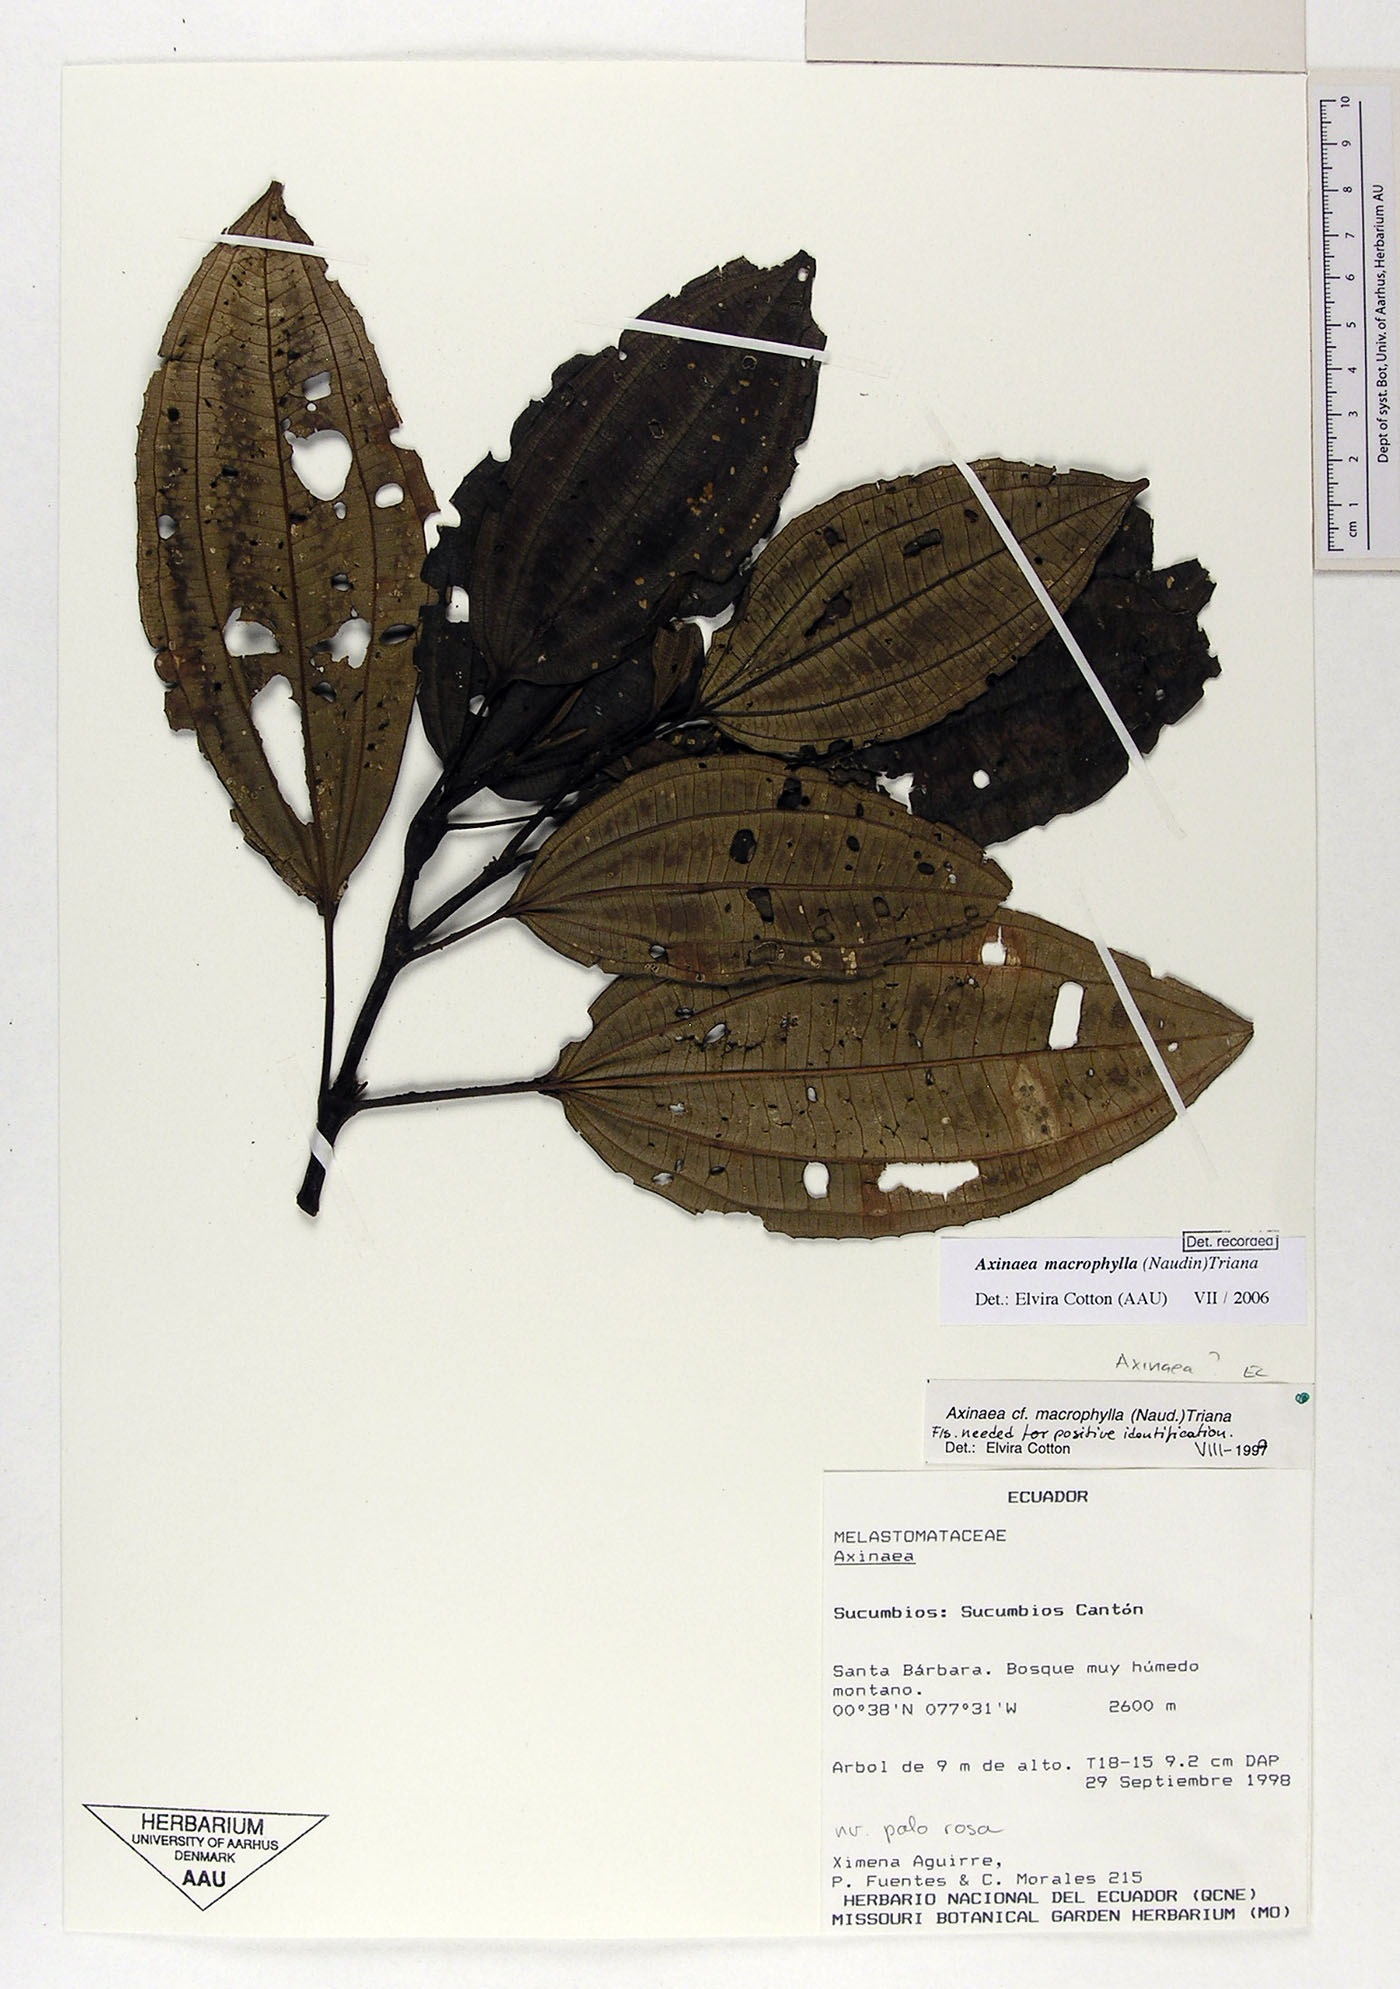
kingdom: Plantae
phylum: Tracheophyta
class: Magnoliopsida
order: Myrtales
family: Melastomataceae
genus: Axinaea
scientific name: Axinaea macrophylla
